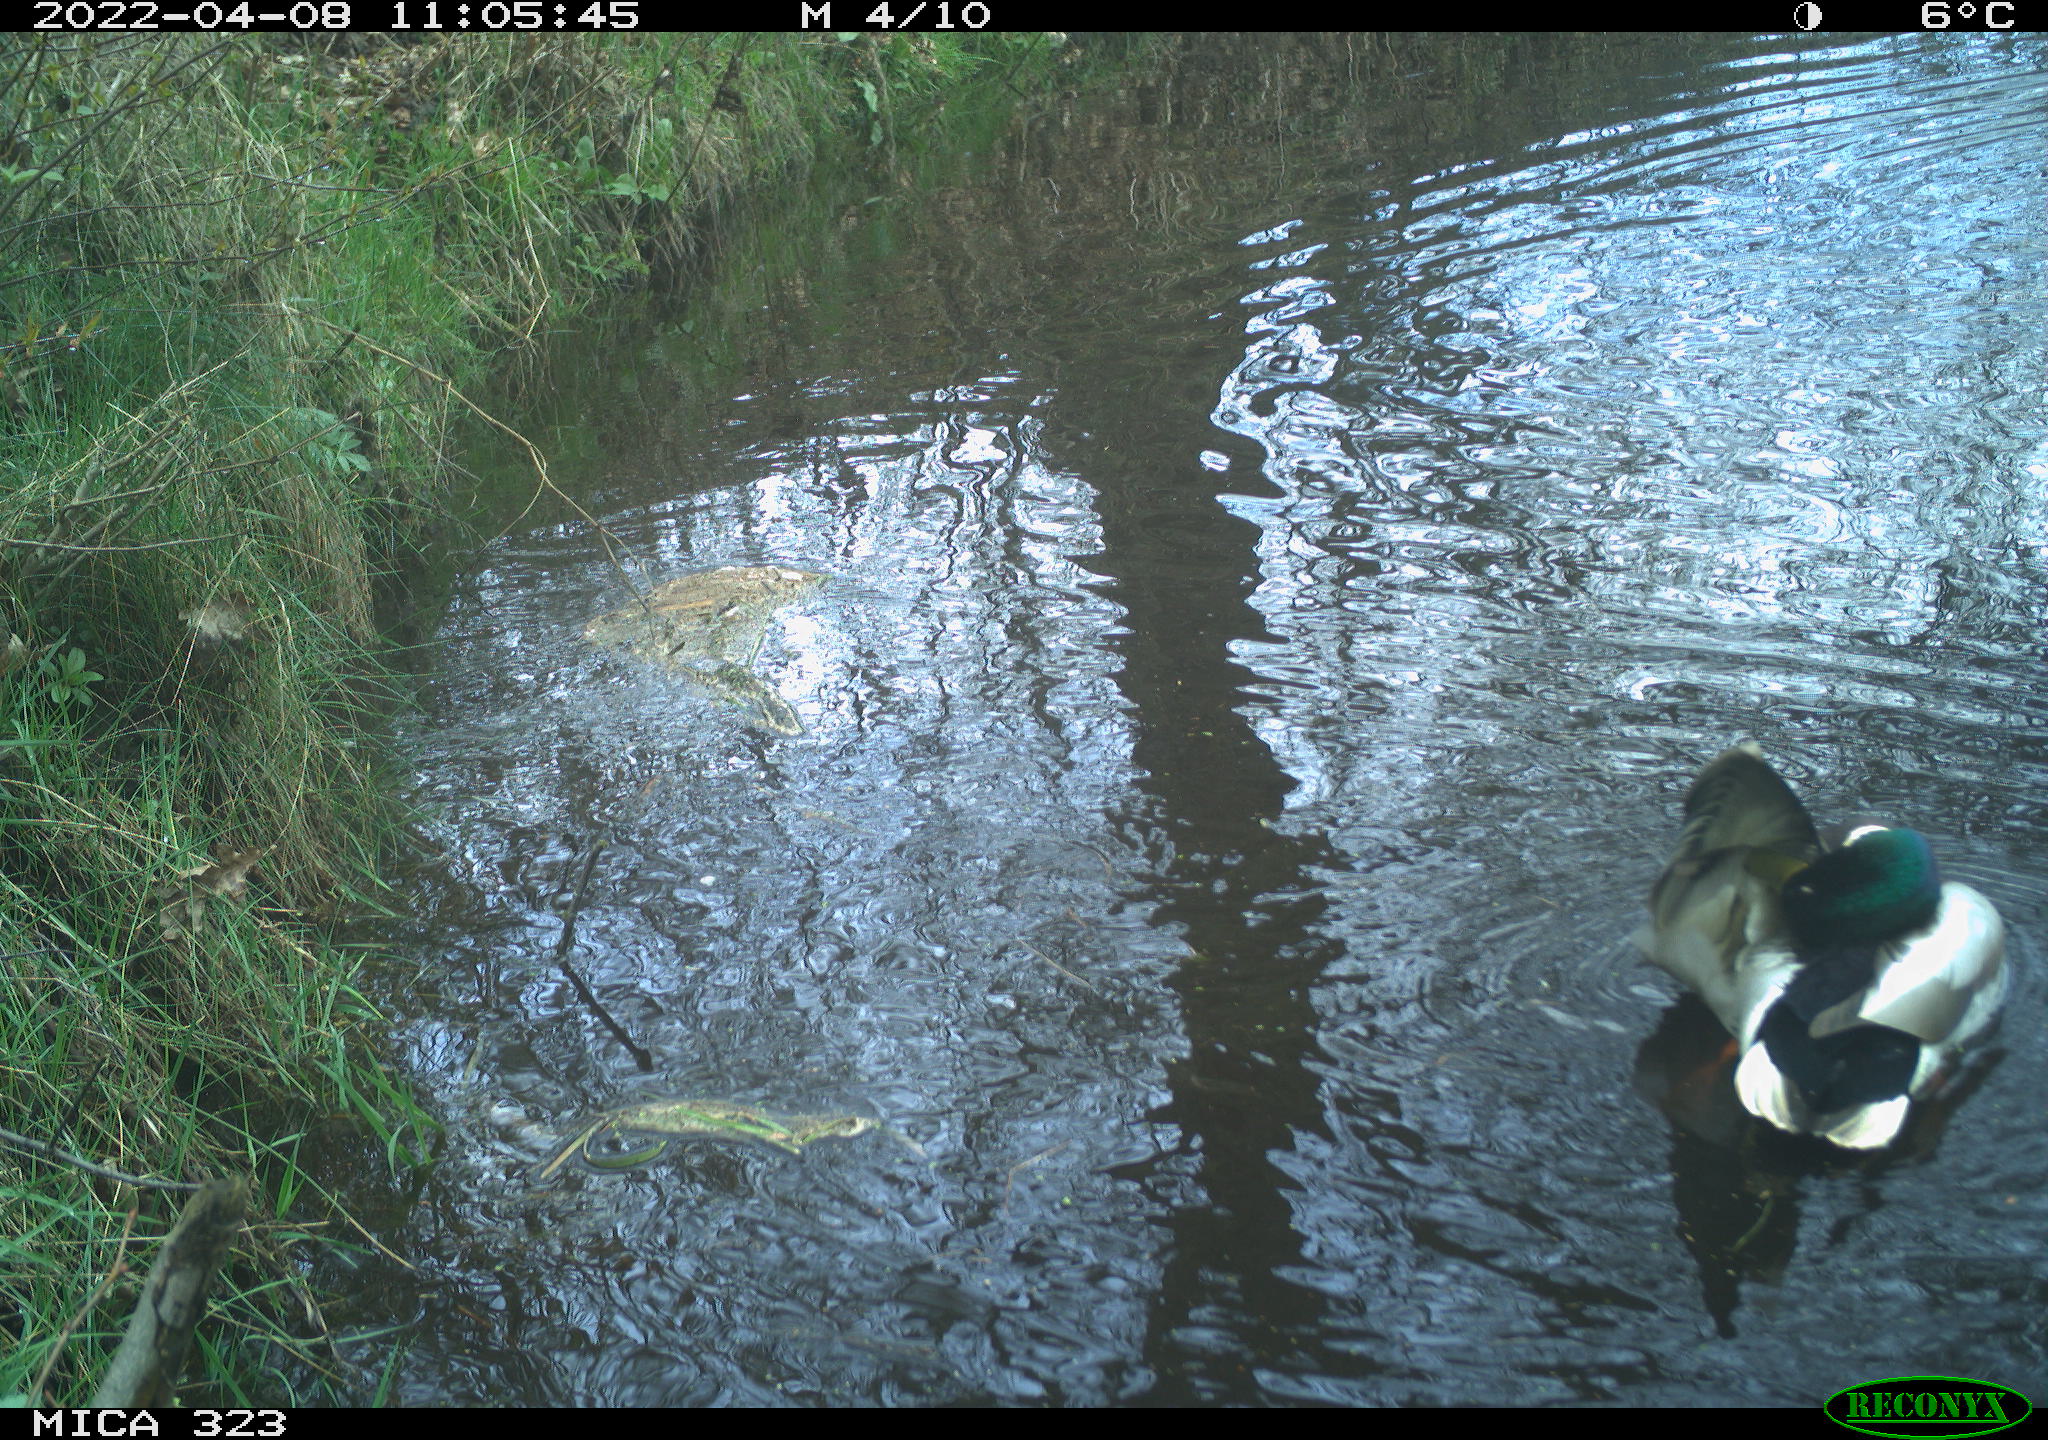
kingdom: Animalia
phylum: Chordata
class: Aves
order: Anseriformes
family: Anatidae
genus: Anas
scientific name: Anas platyrhynchos
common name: Mallard
